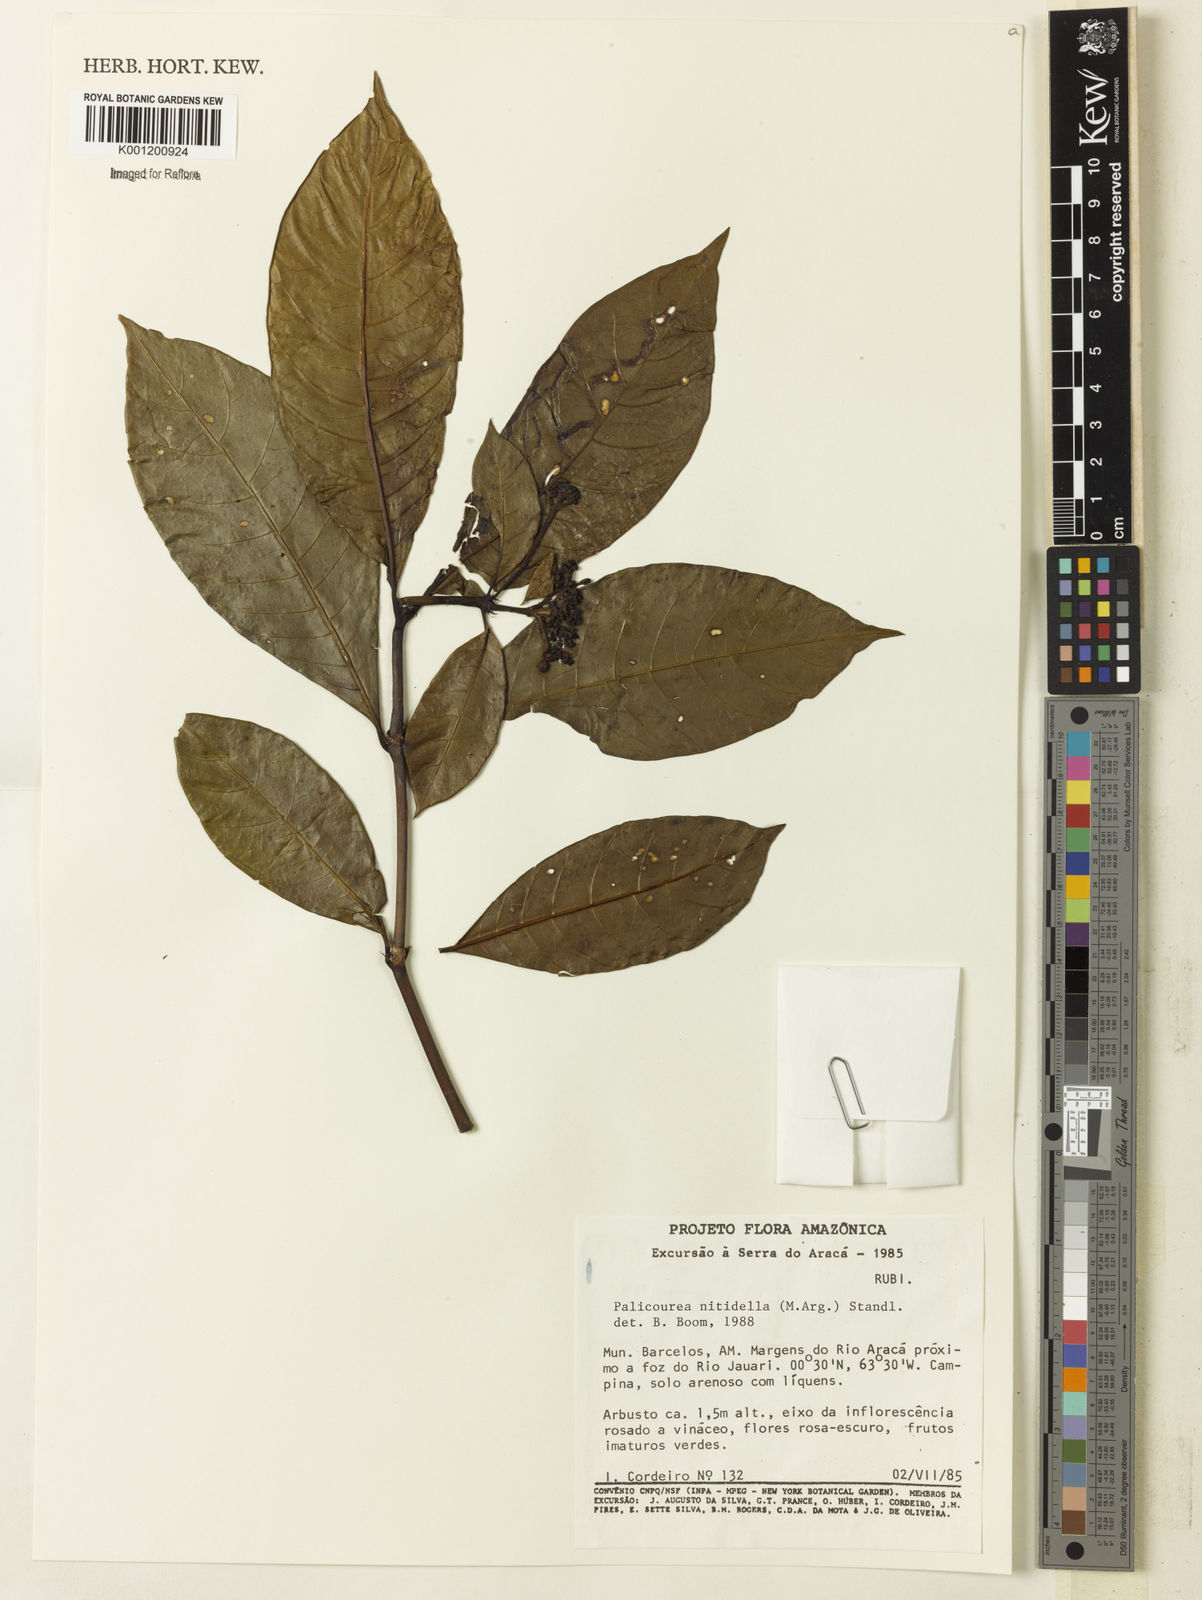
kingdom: Plantae
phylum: Tracheophyta
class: Magnoliopsida
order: Gentianales
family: Rubiaceae
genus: Palicourea
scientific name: Palicourea
